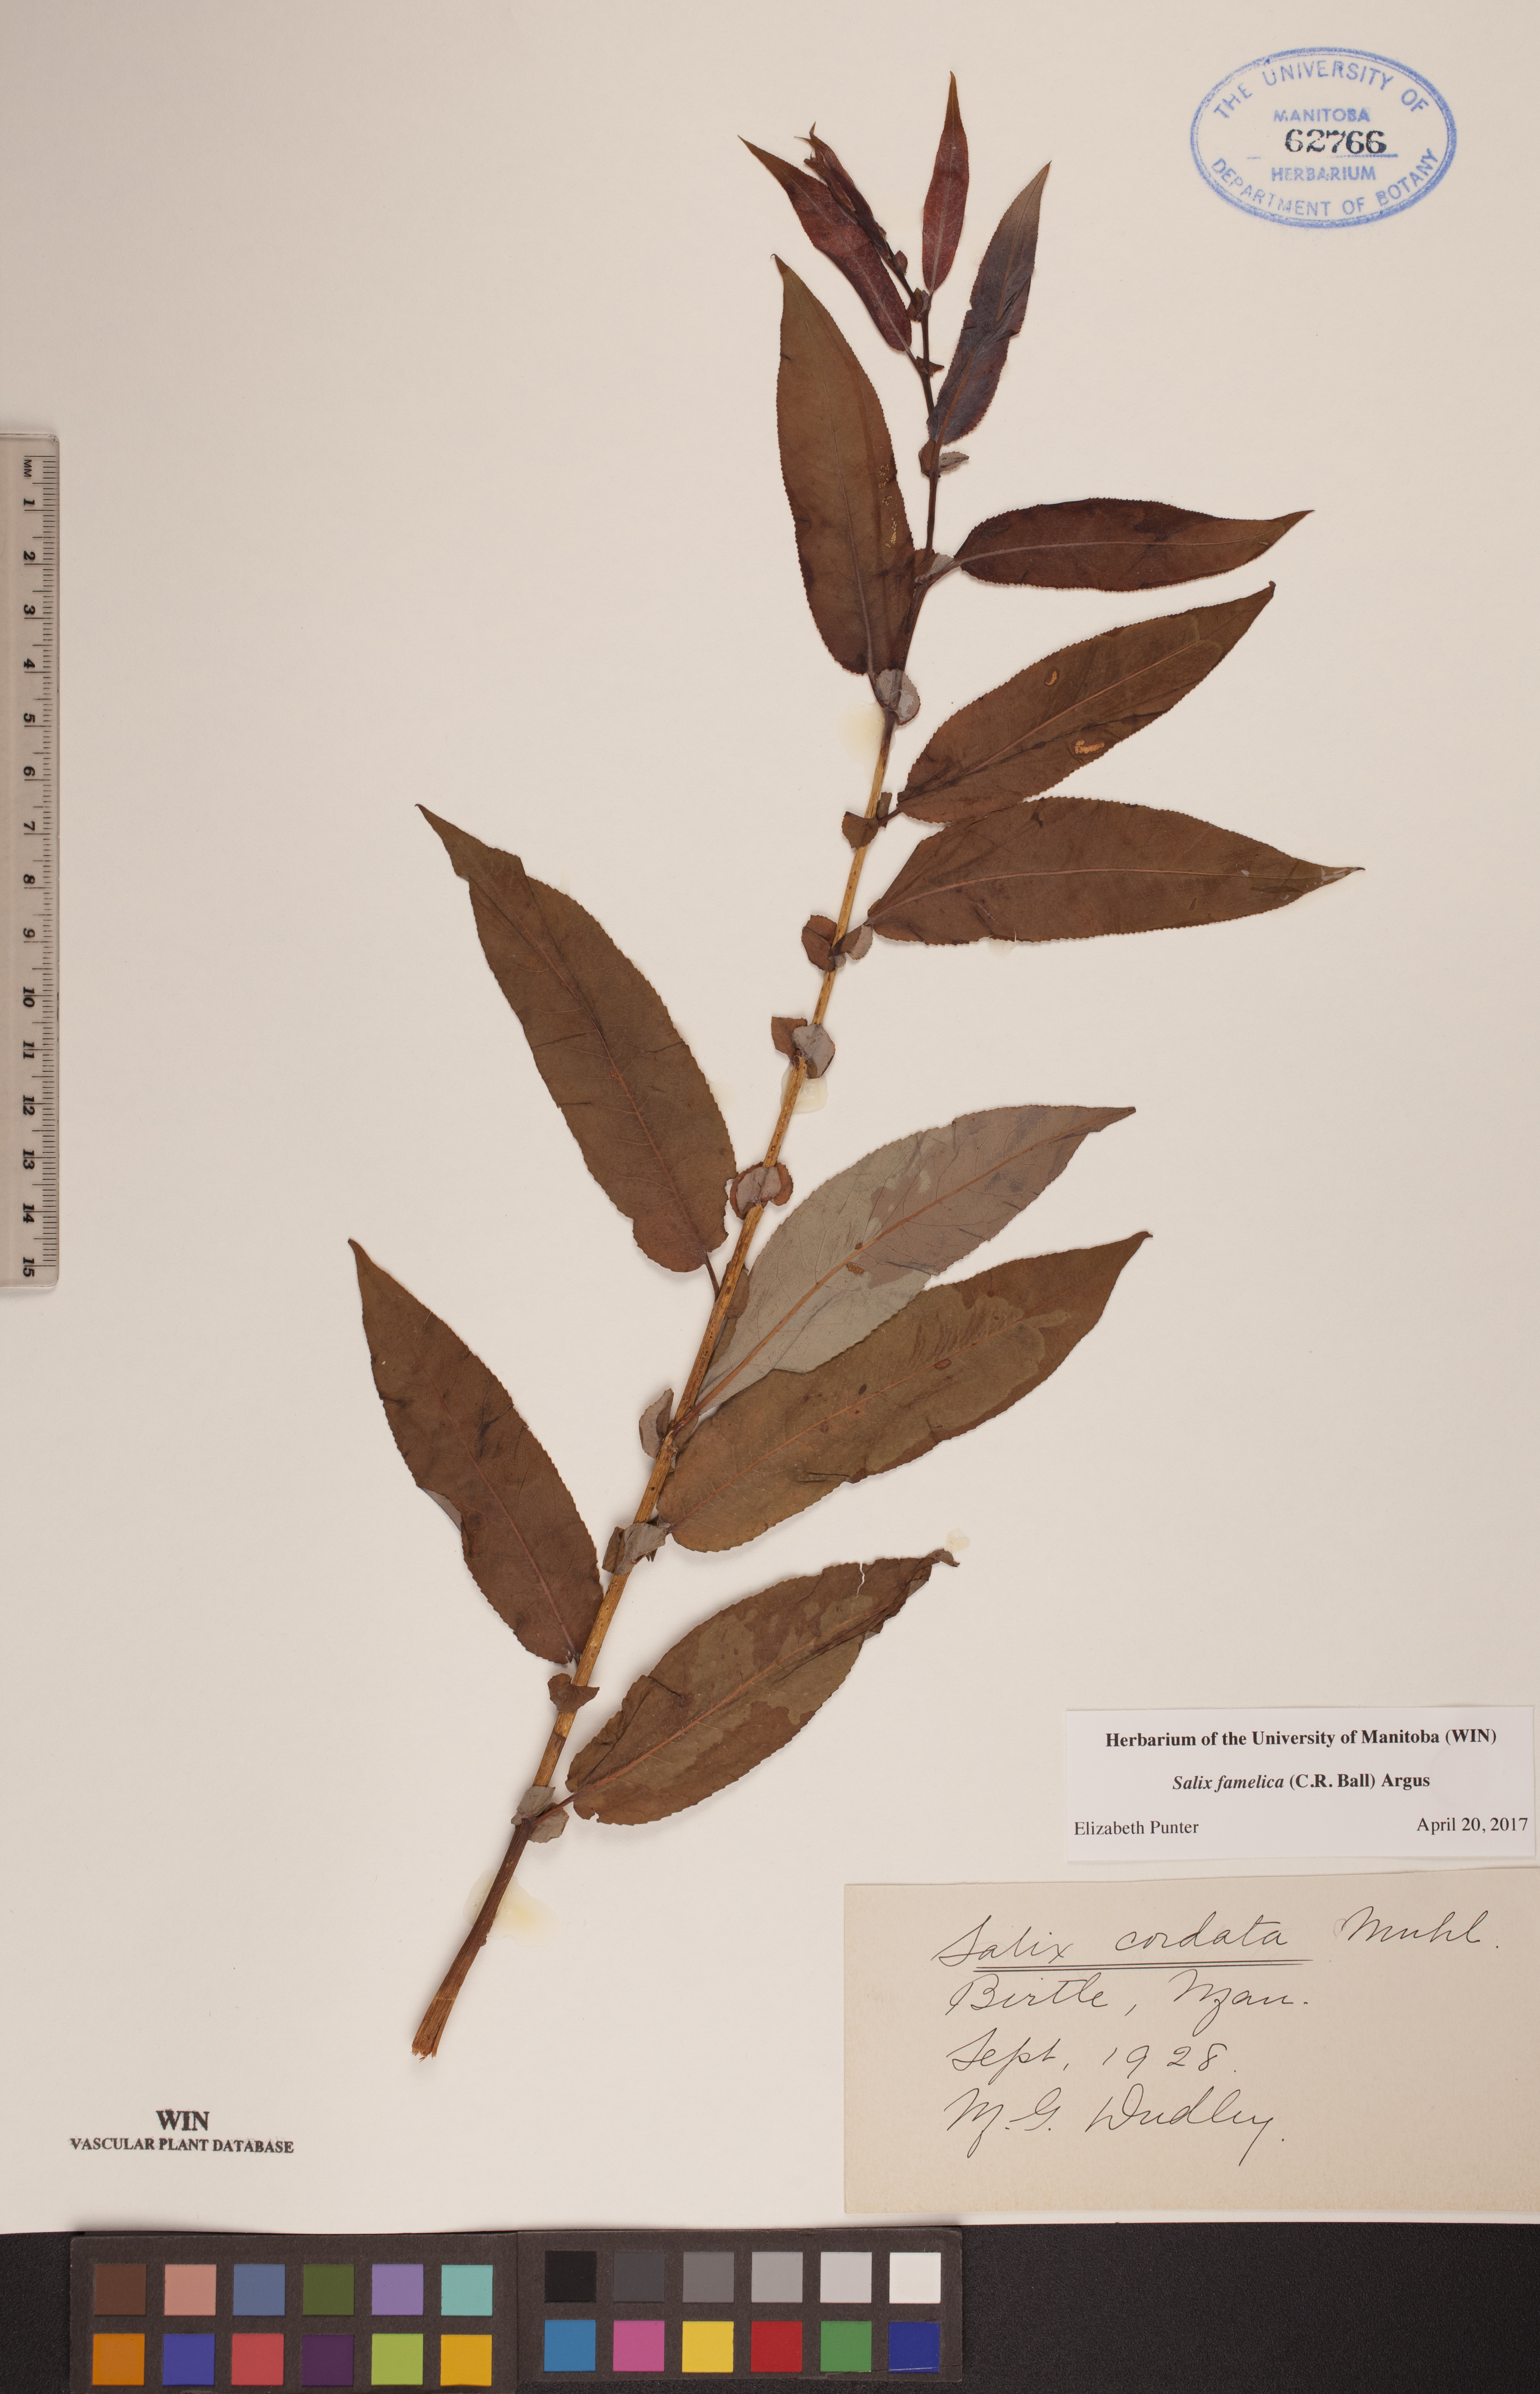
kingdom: Plantae
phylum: Tracheophyta
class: Magnoliopsida
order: Malpighiales
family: Salicaceae
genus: Salix
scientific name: Salix famelica
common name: Hungry willow
